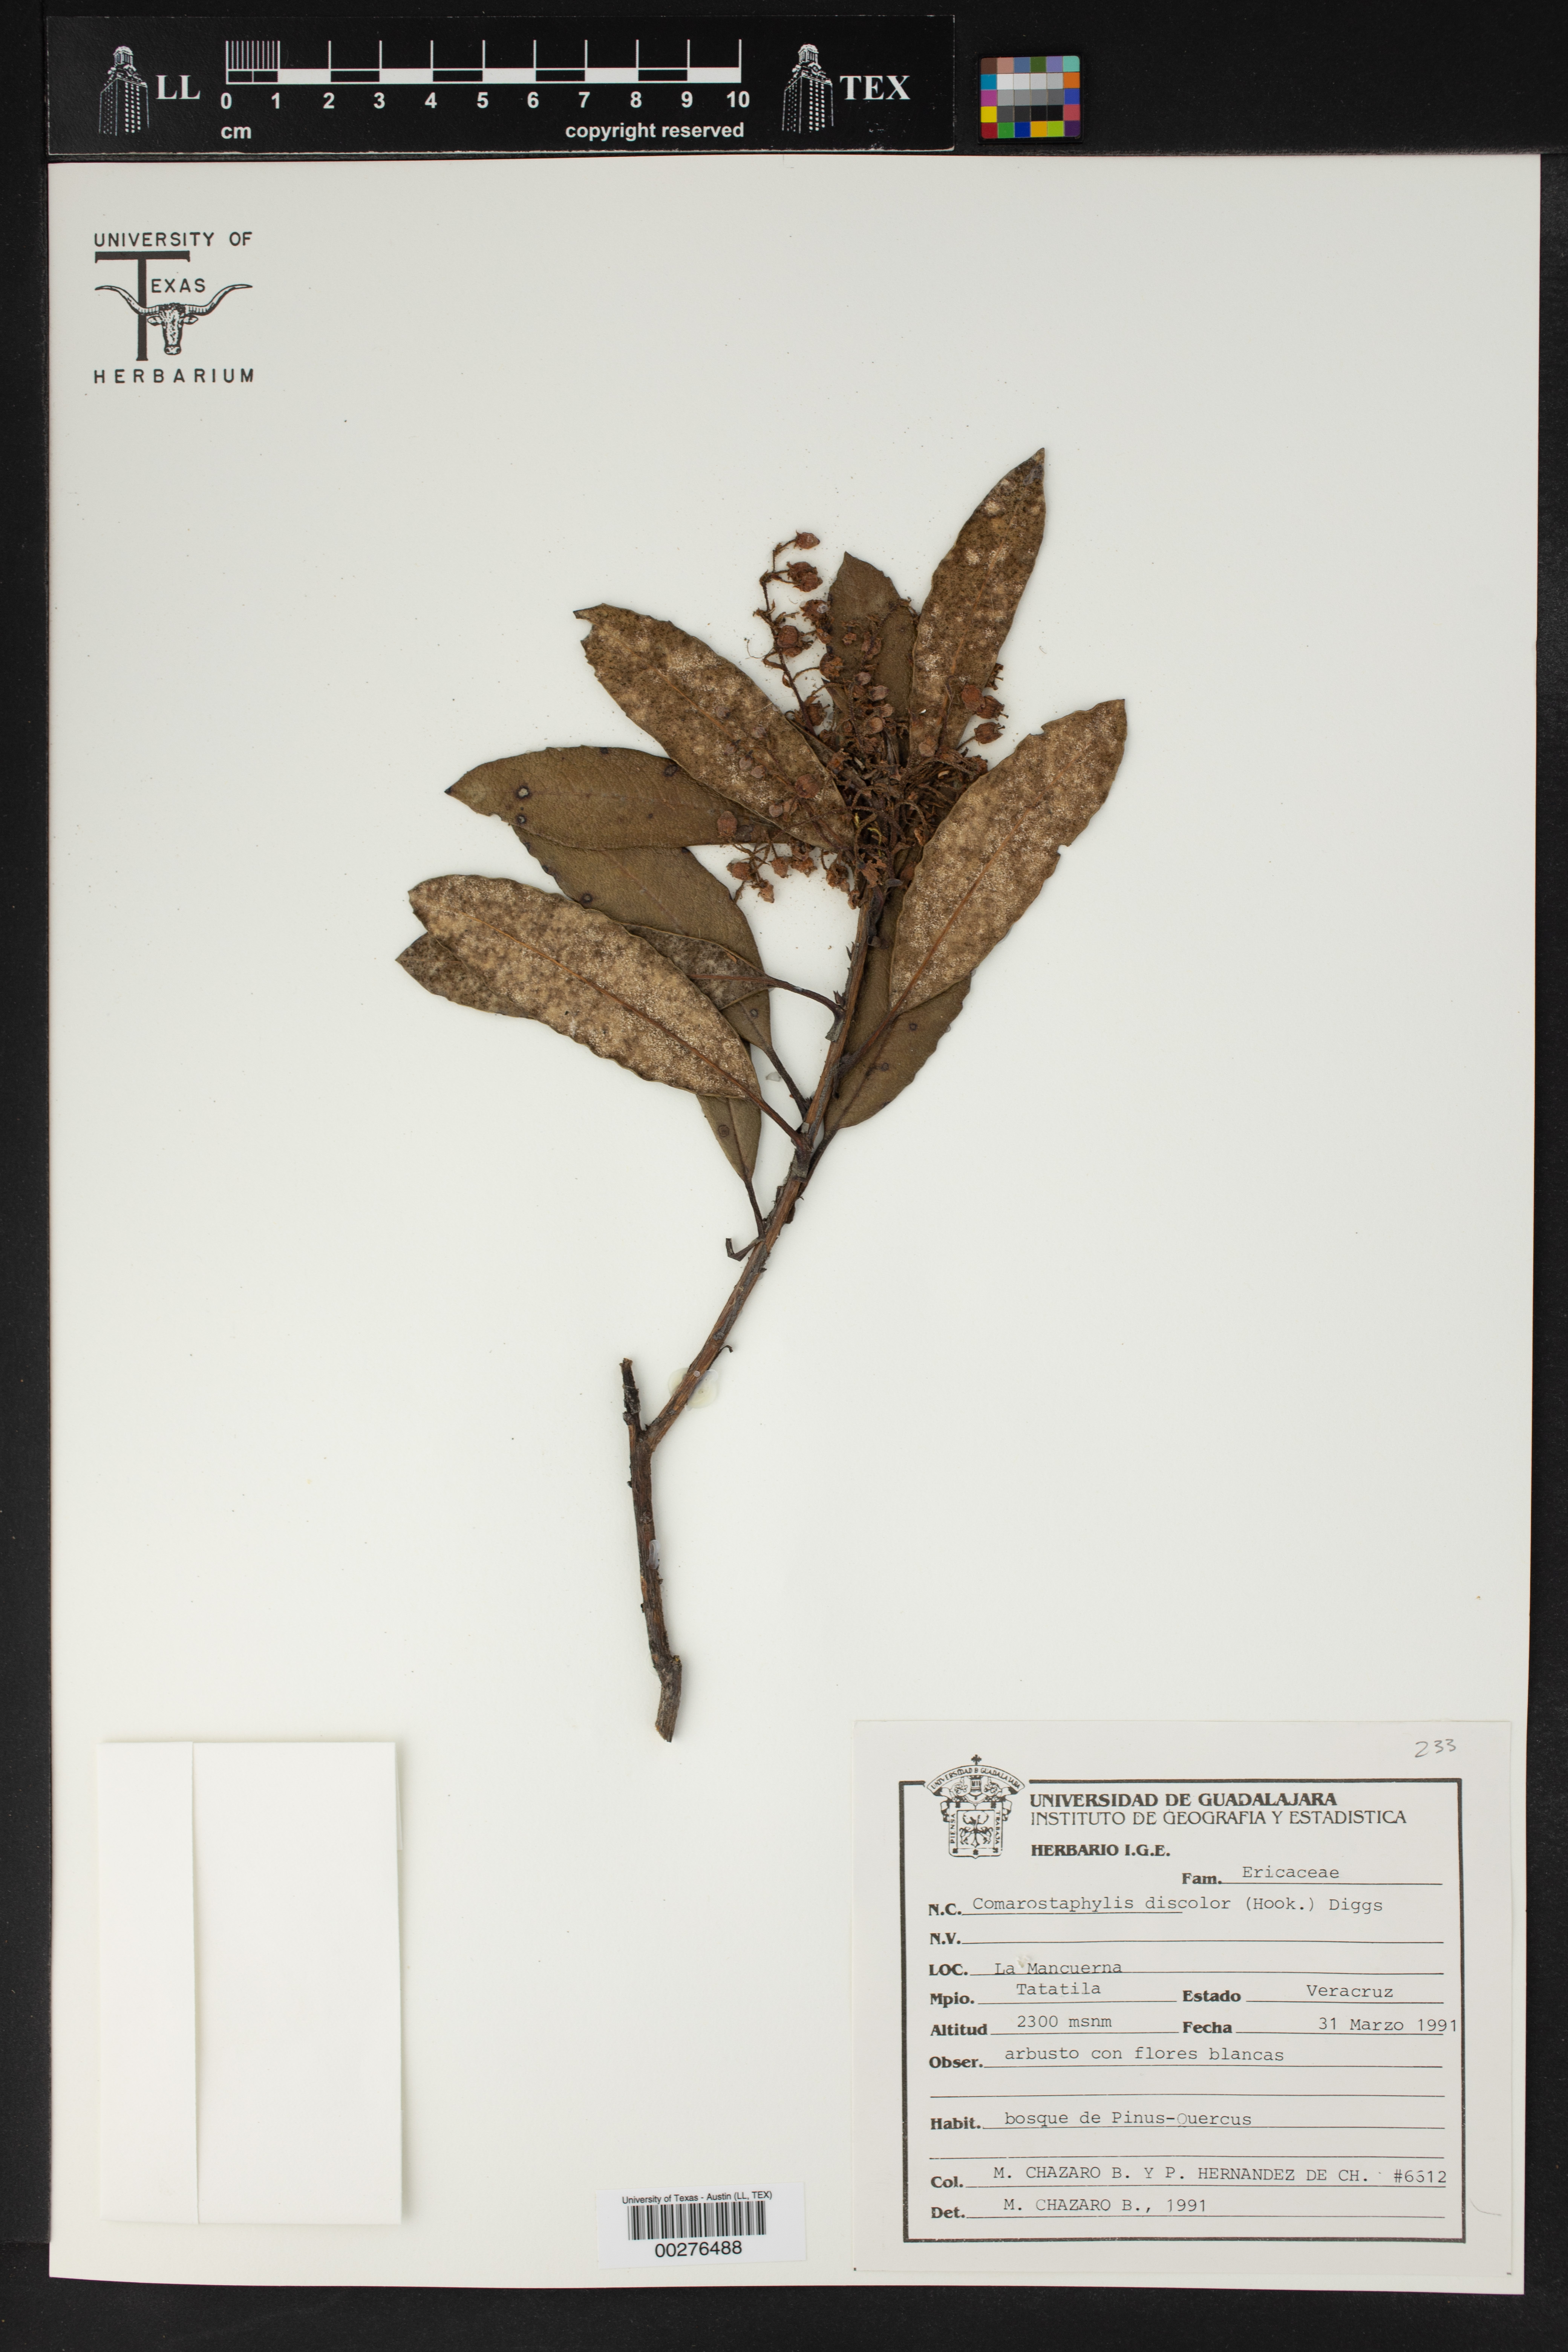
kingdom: Plantae
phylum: Tracheophyta
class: Magnoliopsida
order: Ericales
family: Ericaceae
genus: Comarostaphylis
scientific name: Comarostaphylis discolor
